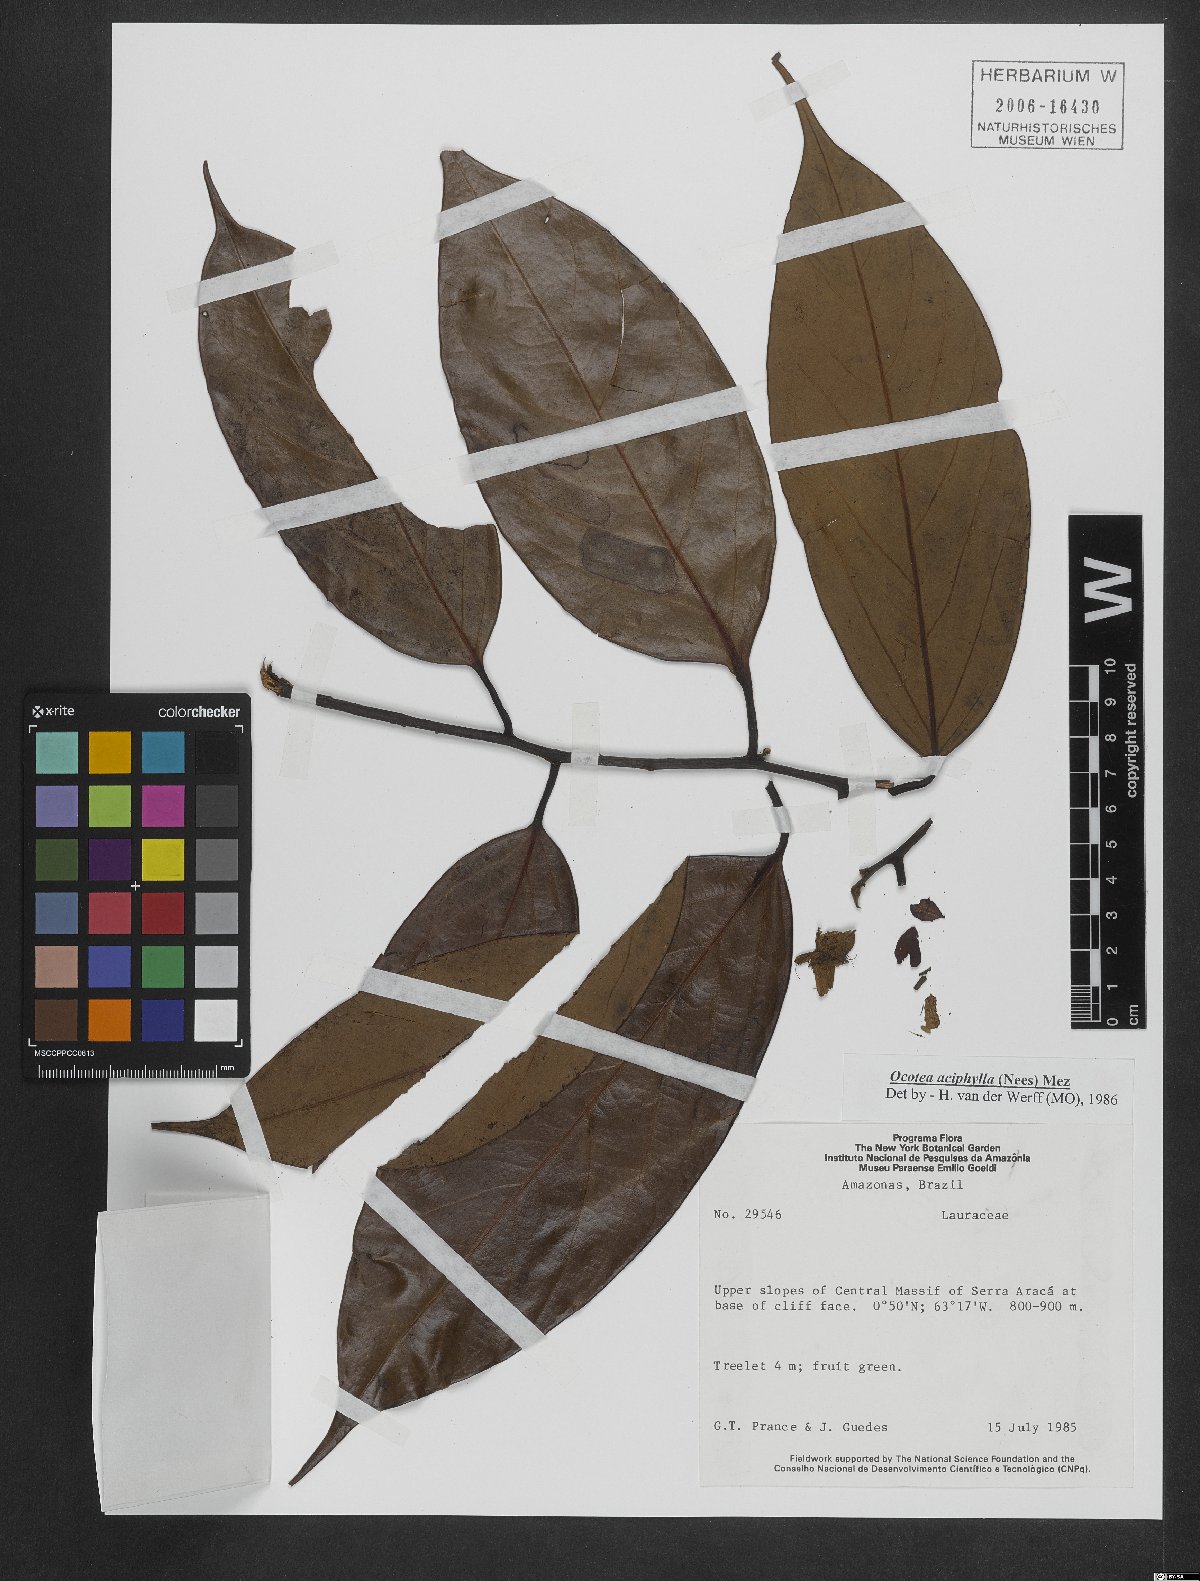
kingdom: Plantae
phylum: Tracheophyta
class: Magnoliopsida
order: Laurales
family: Lauraceae
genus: Ocotea
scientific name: Ocotea aciphylla
